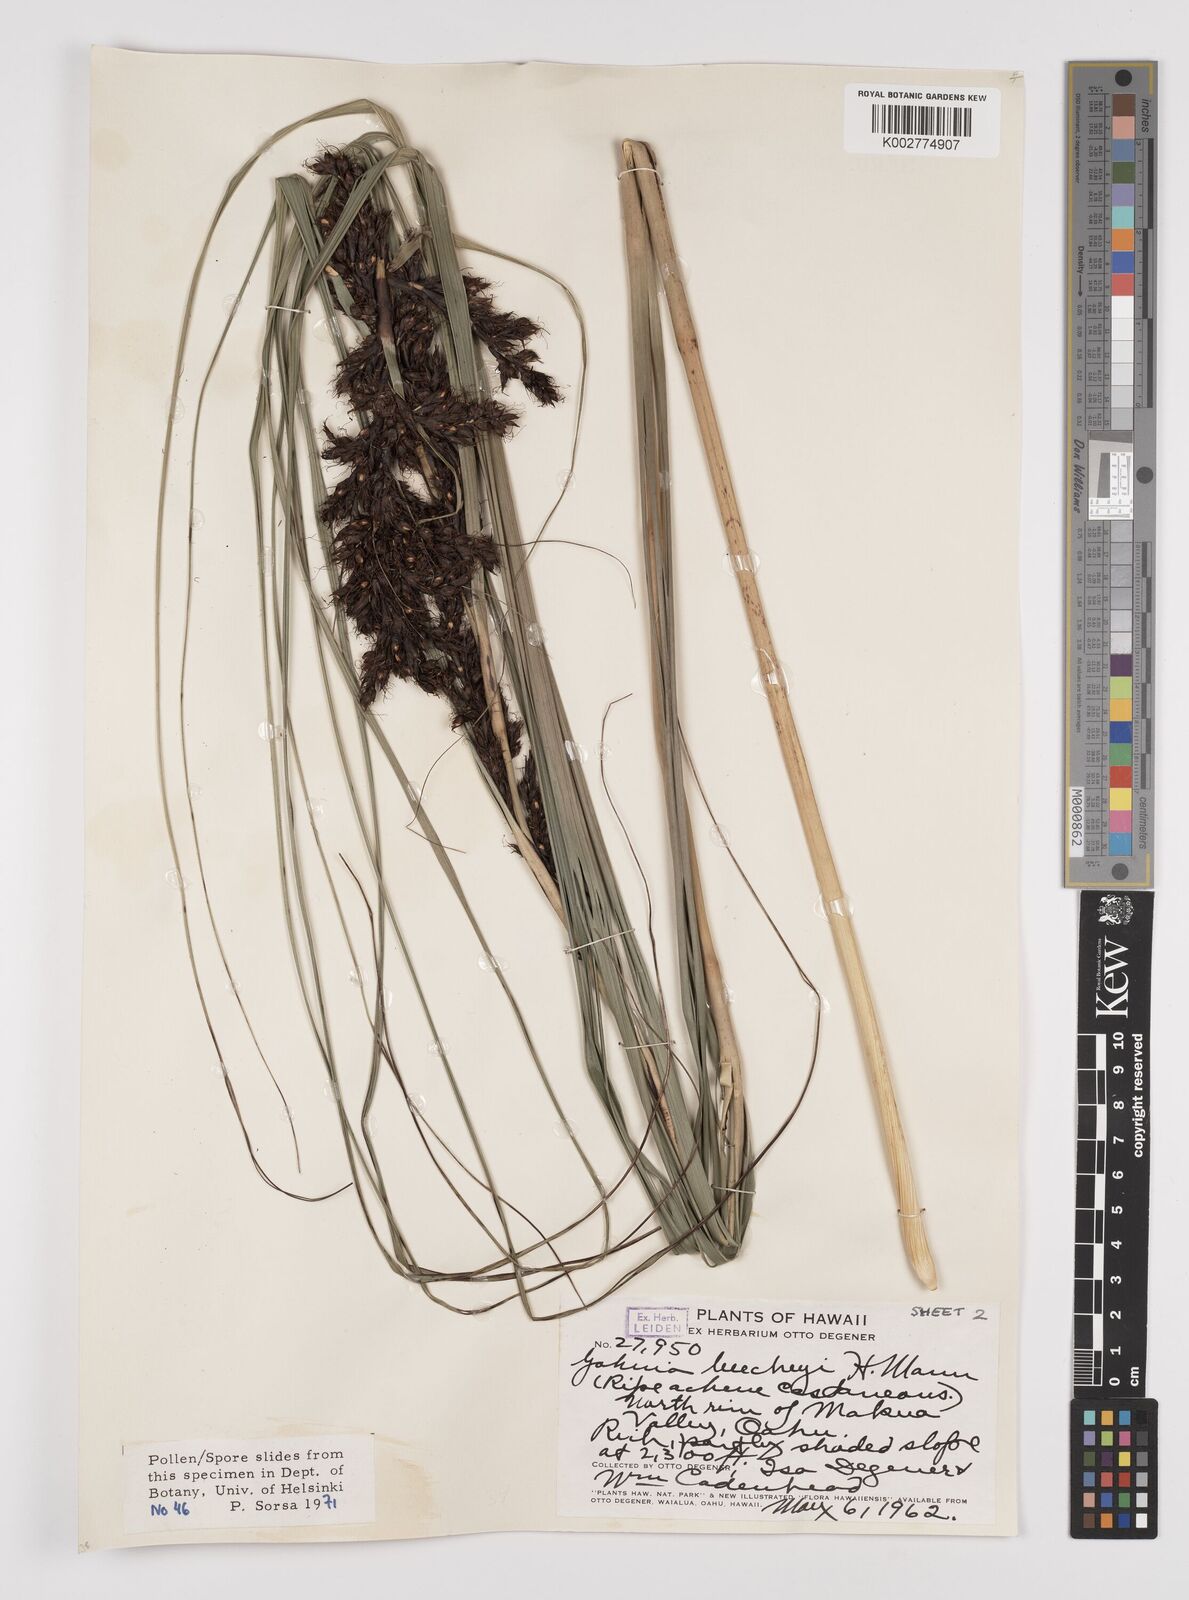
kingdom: Plantae
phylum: Tracheophyta
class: Liliopsida
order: Poales
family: Cyperaceae
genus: Gahnia
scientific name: Gahnia beecheyi
